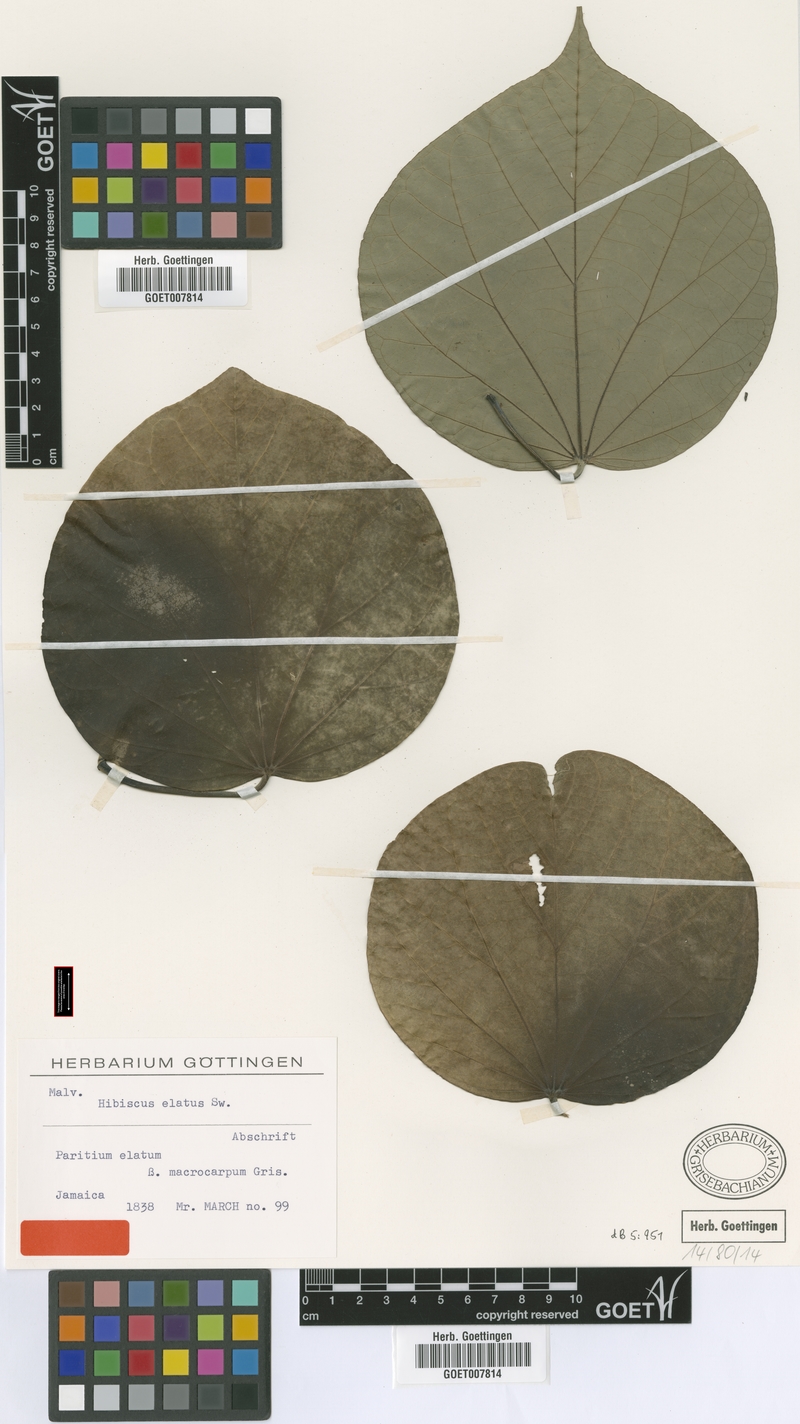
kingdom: Plantae
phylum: Tracheophyta
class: Magnoliopsida
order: Malvales
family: Malvaceae
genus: Talipariti
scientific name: Talipariti elatum
